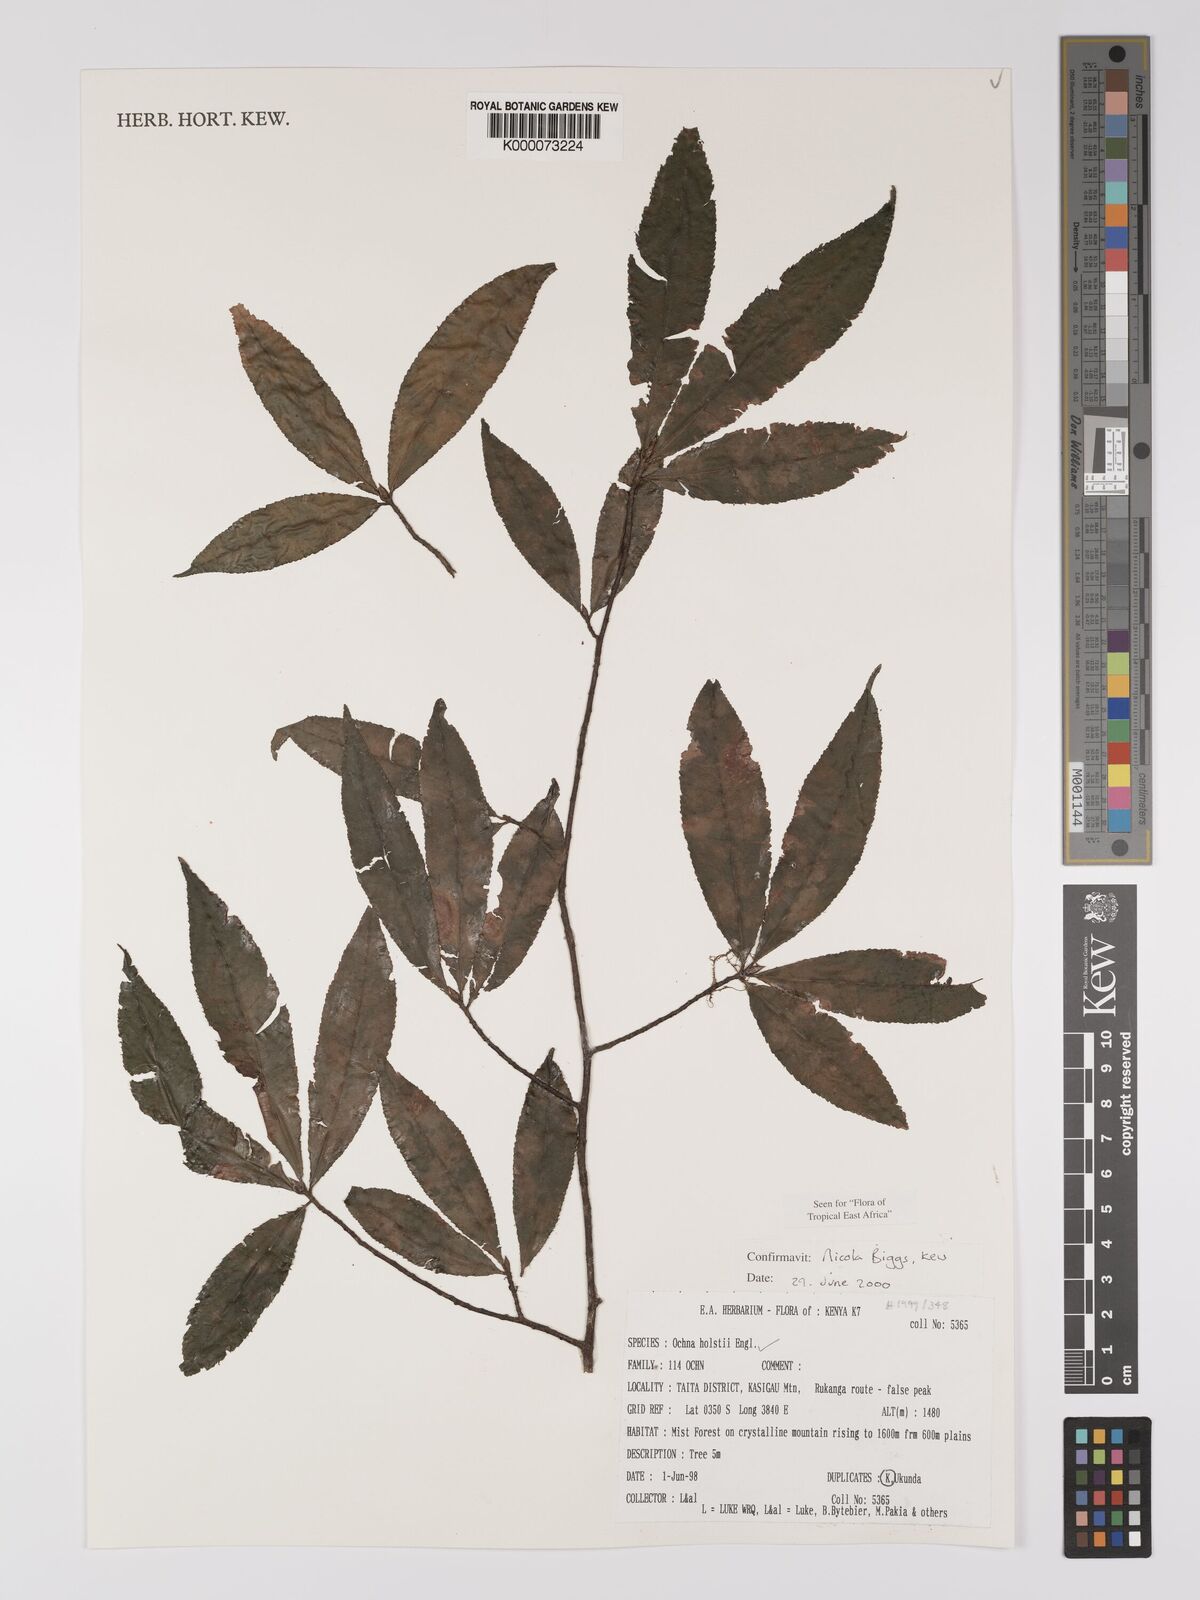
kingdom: Plantae
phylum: Tracheophyta
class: Magnoliopsida
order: Malpighiales
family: Ochnaceae
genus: Ochna
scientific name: Ochna holstii
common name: Red ironwood
